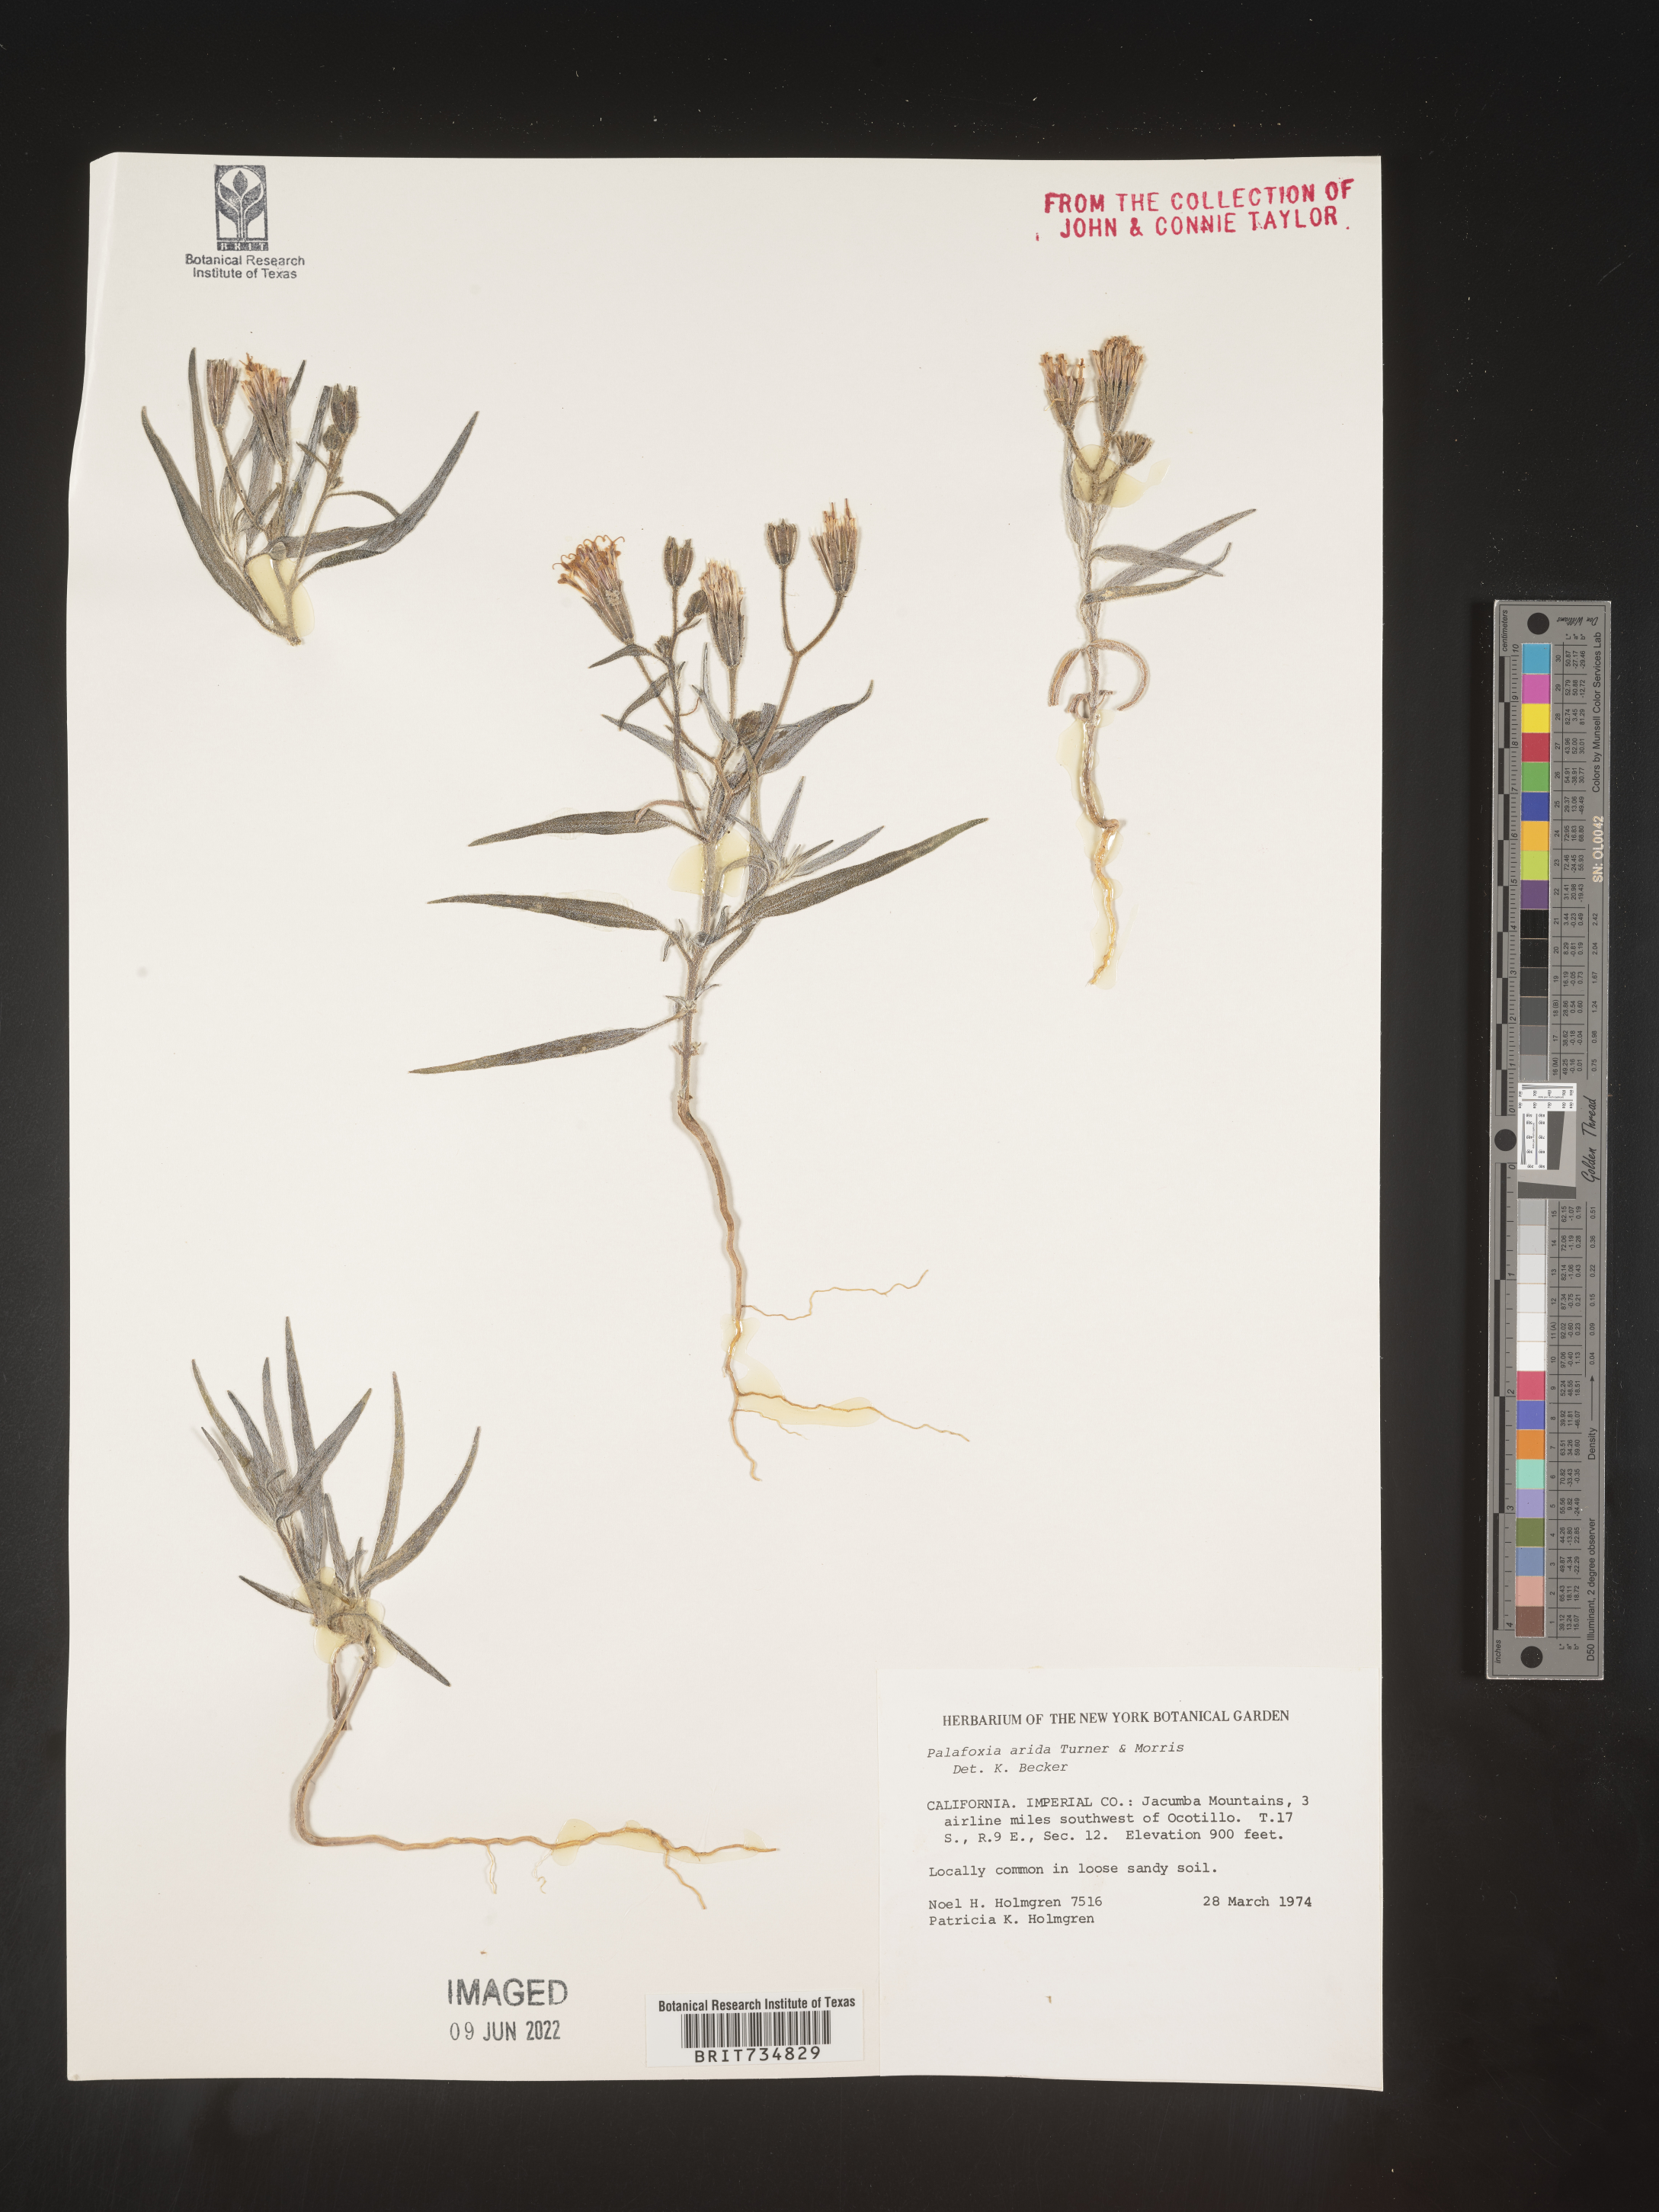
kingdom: Plantae
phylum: Tracheophyta
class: Magnoliopsida
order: Asterales
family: Asteraceae
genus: Palafoxia
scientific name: Palafoxia arida
